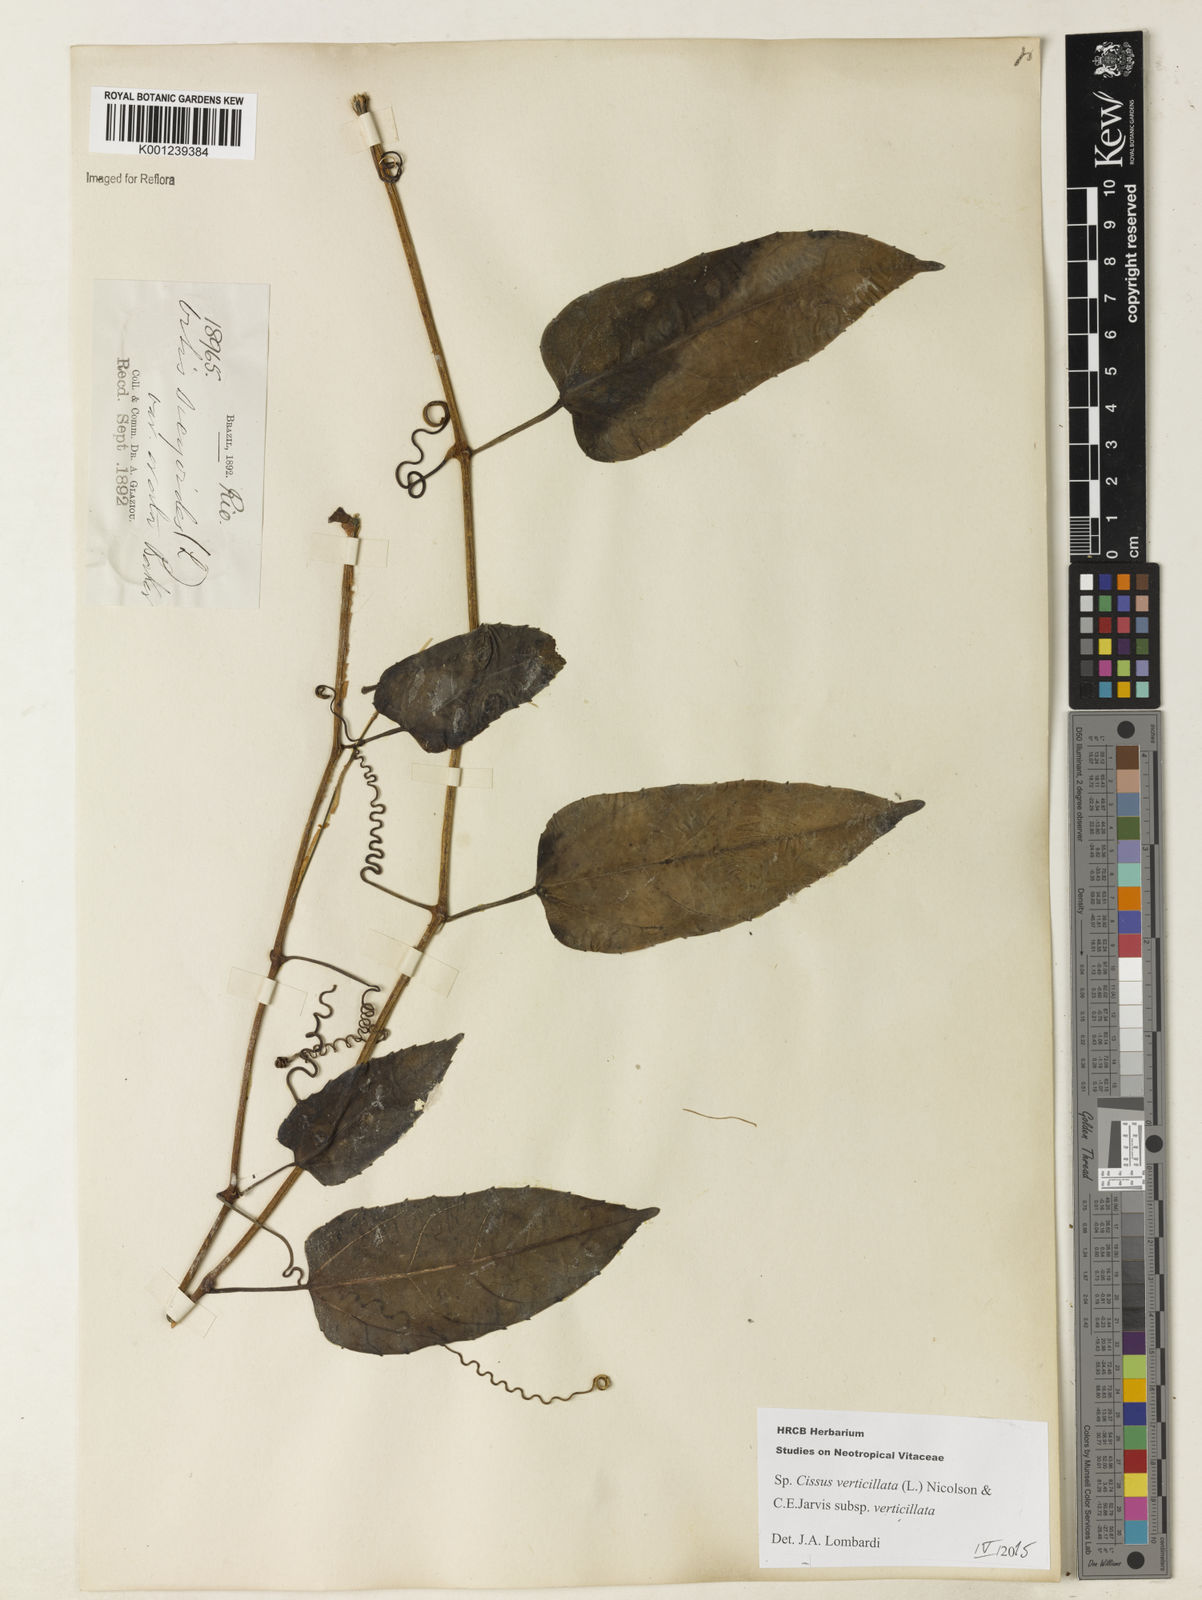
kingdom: Plantae
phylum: Tracheophyta
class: Magnoliopsida
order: Vitales
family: Vitaceae
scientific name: Vitaceae
